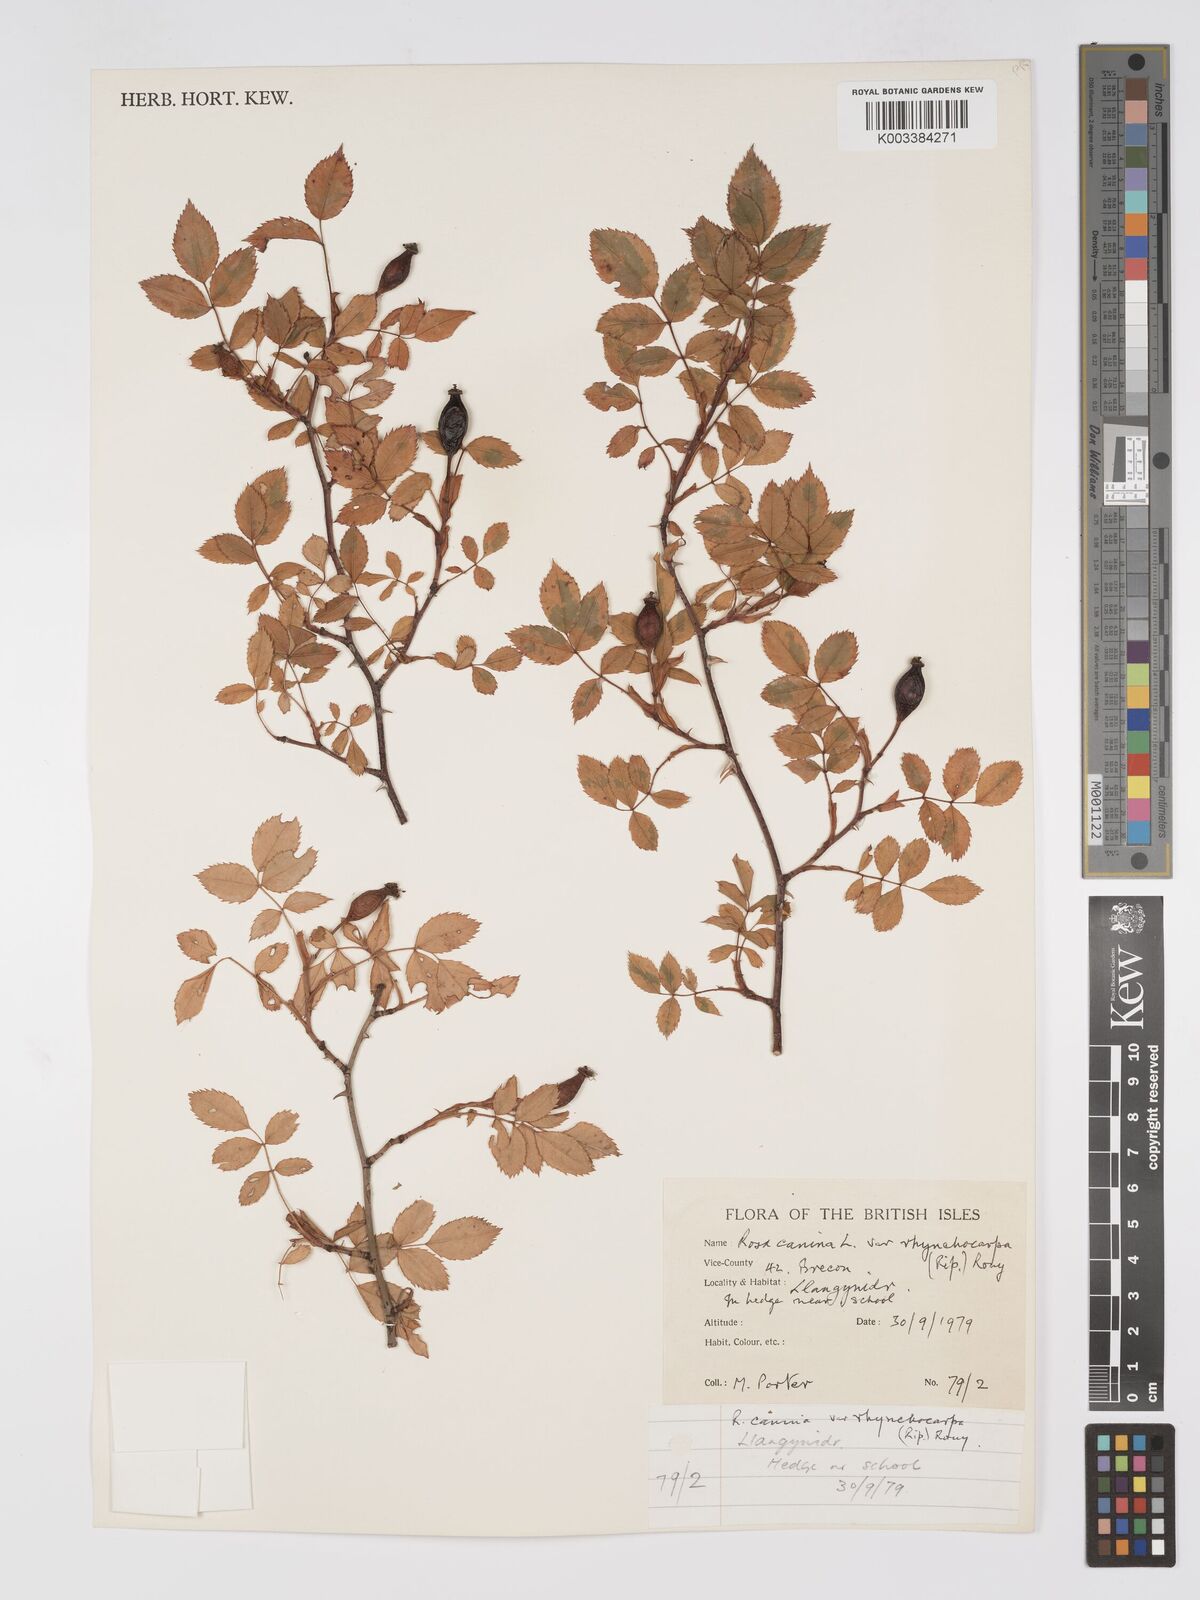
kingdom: Plantae
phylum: Tracheophyta
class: Magnoliopsida
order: Rosales
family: Rosaceae
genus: Rosa
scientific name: Rosa canina
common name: Dog rose
